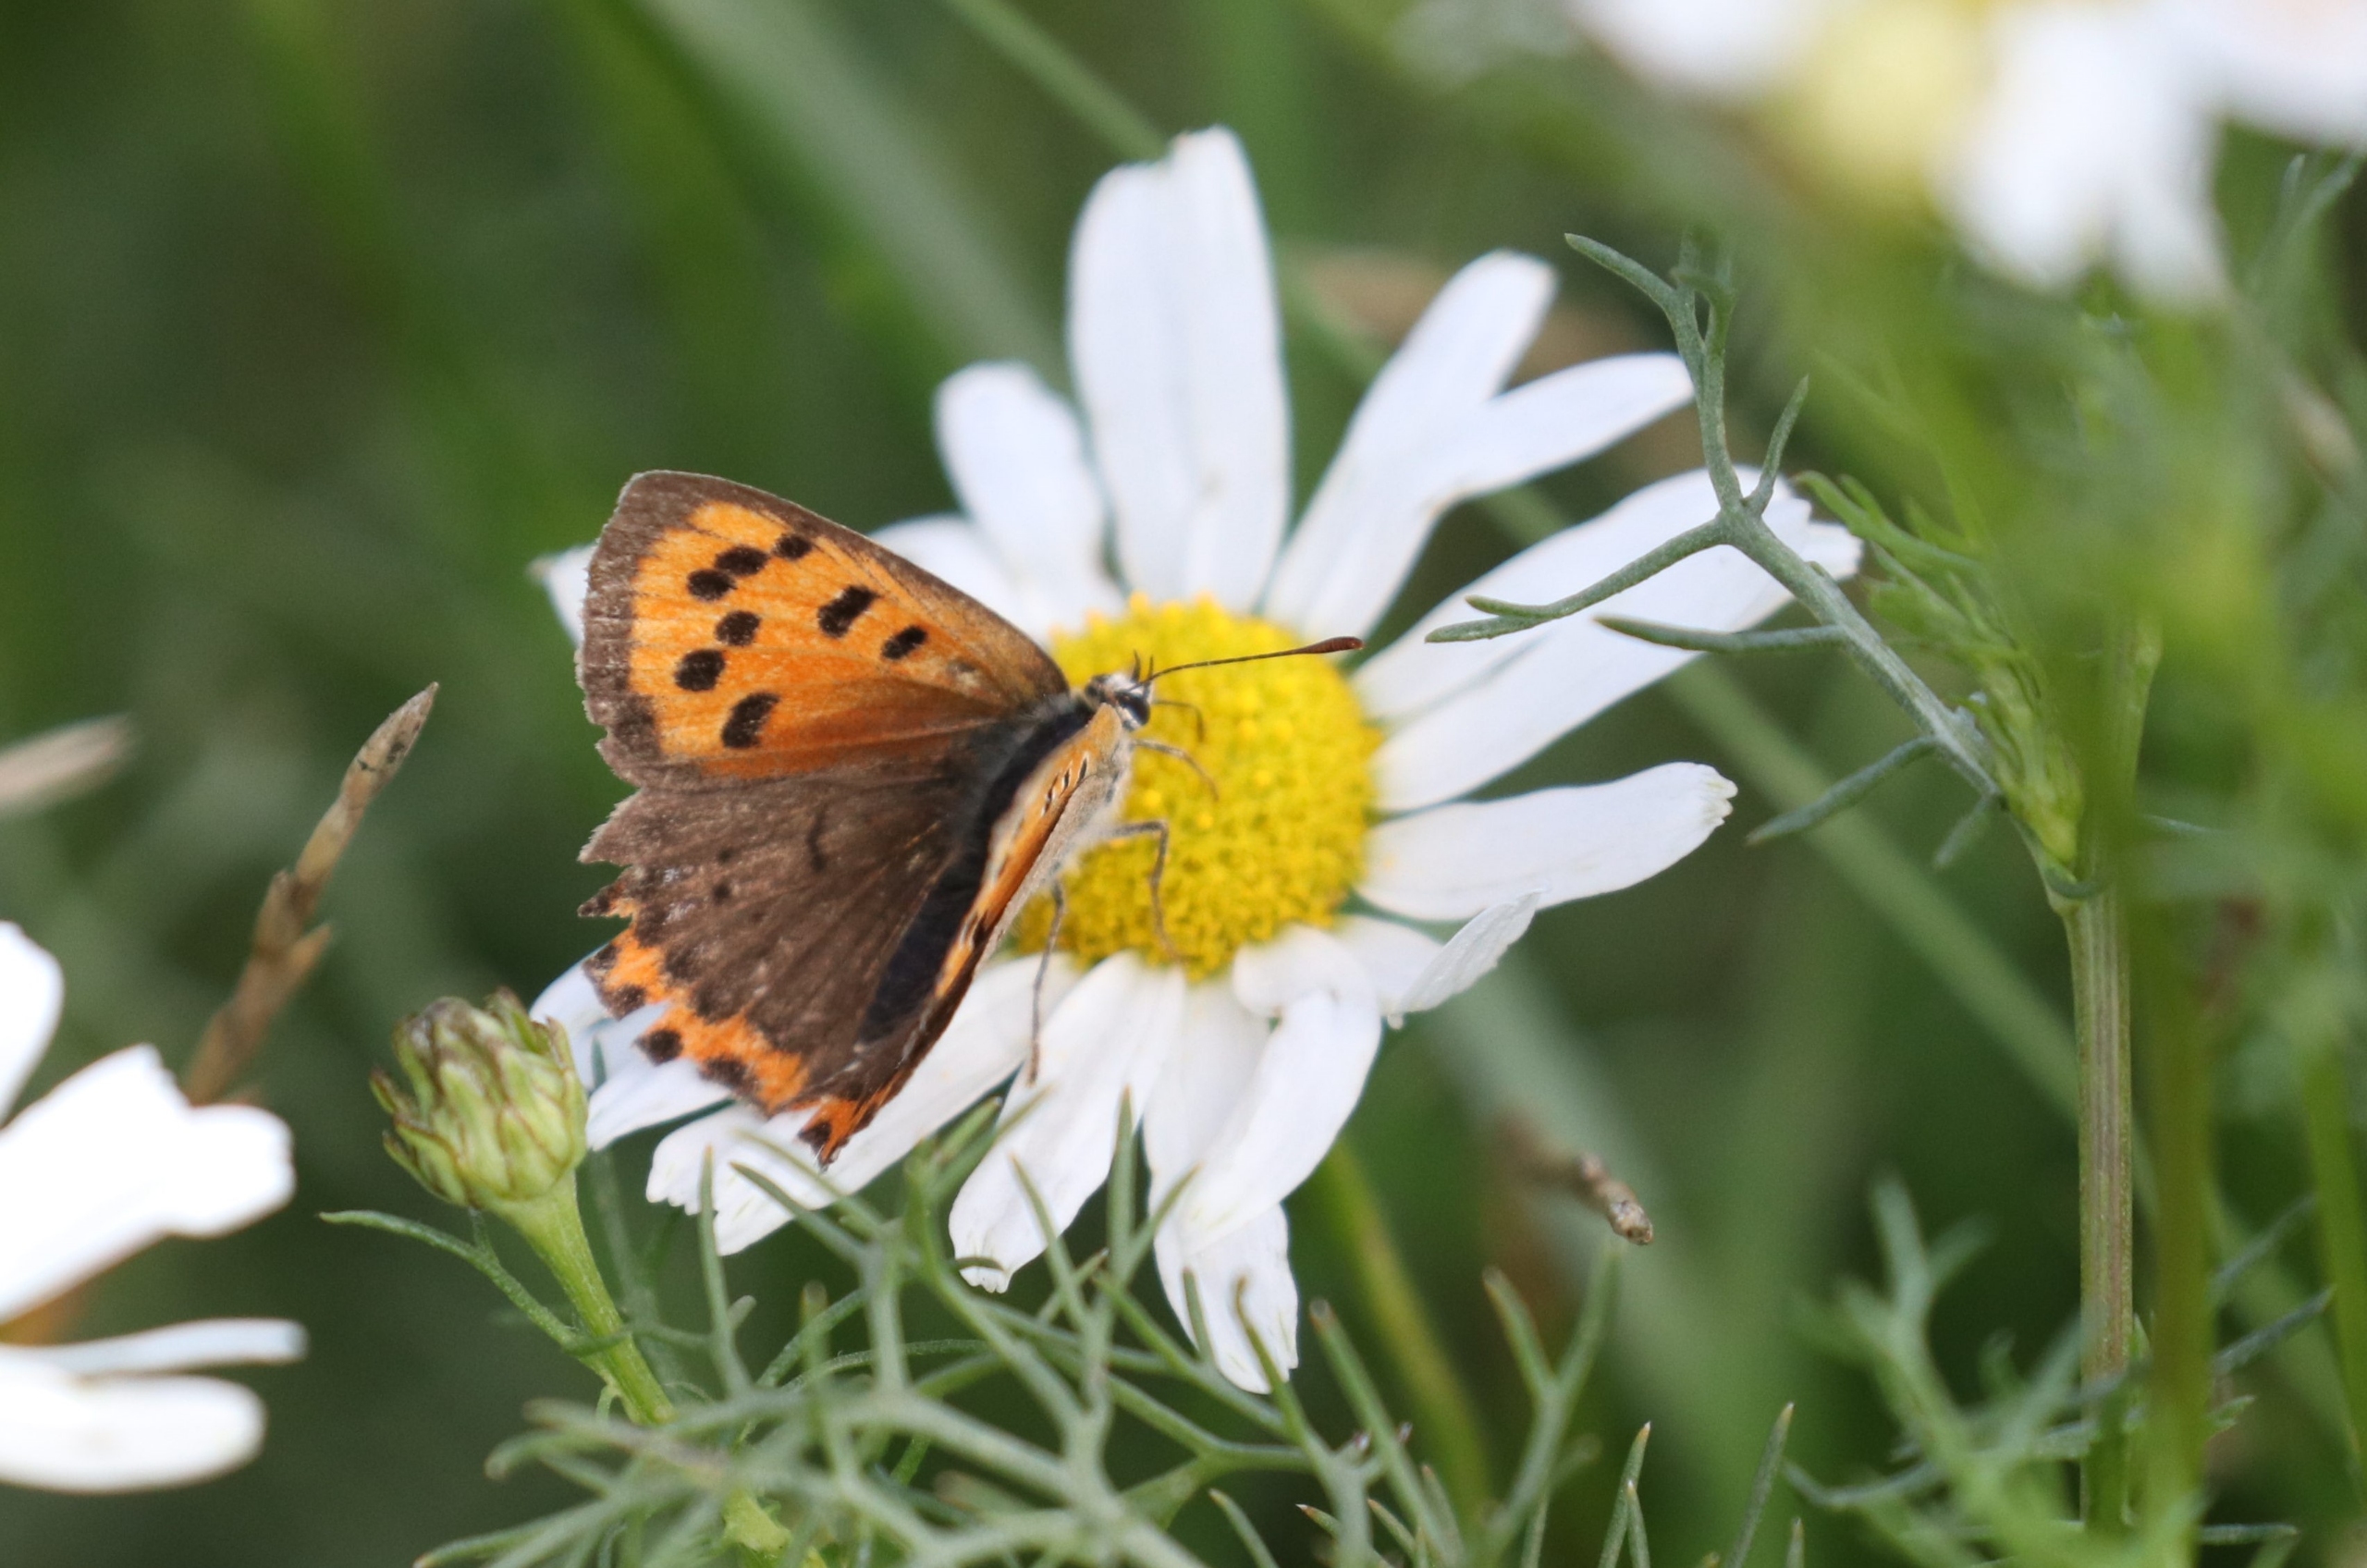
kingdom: Animalia
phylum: Arthropoda
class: Insecta
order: Lepidoptera
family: Lycaenidae
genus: Lycaena
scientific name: Lycaena phlaeas
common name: Lille ildfugl
